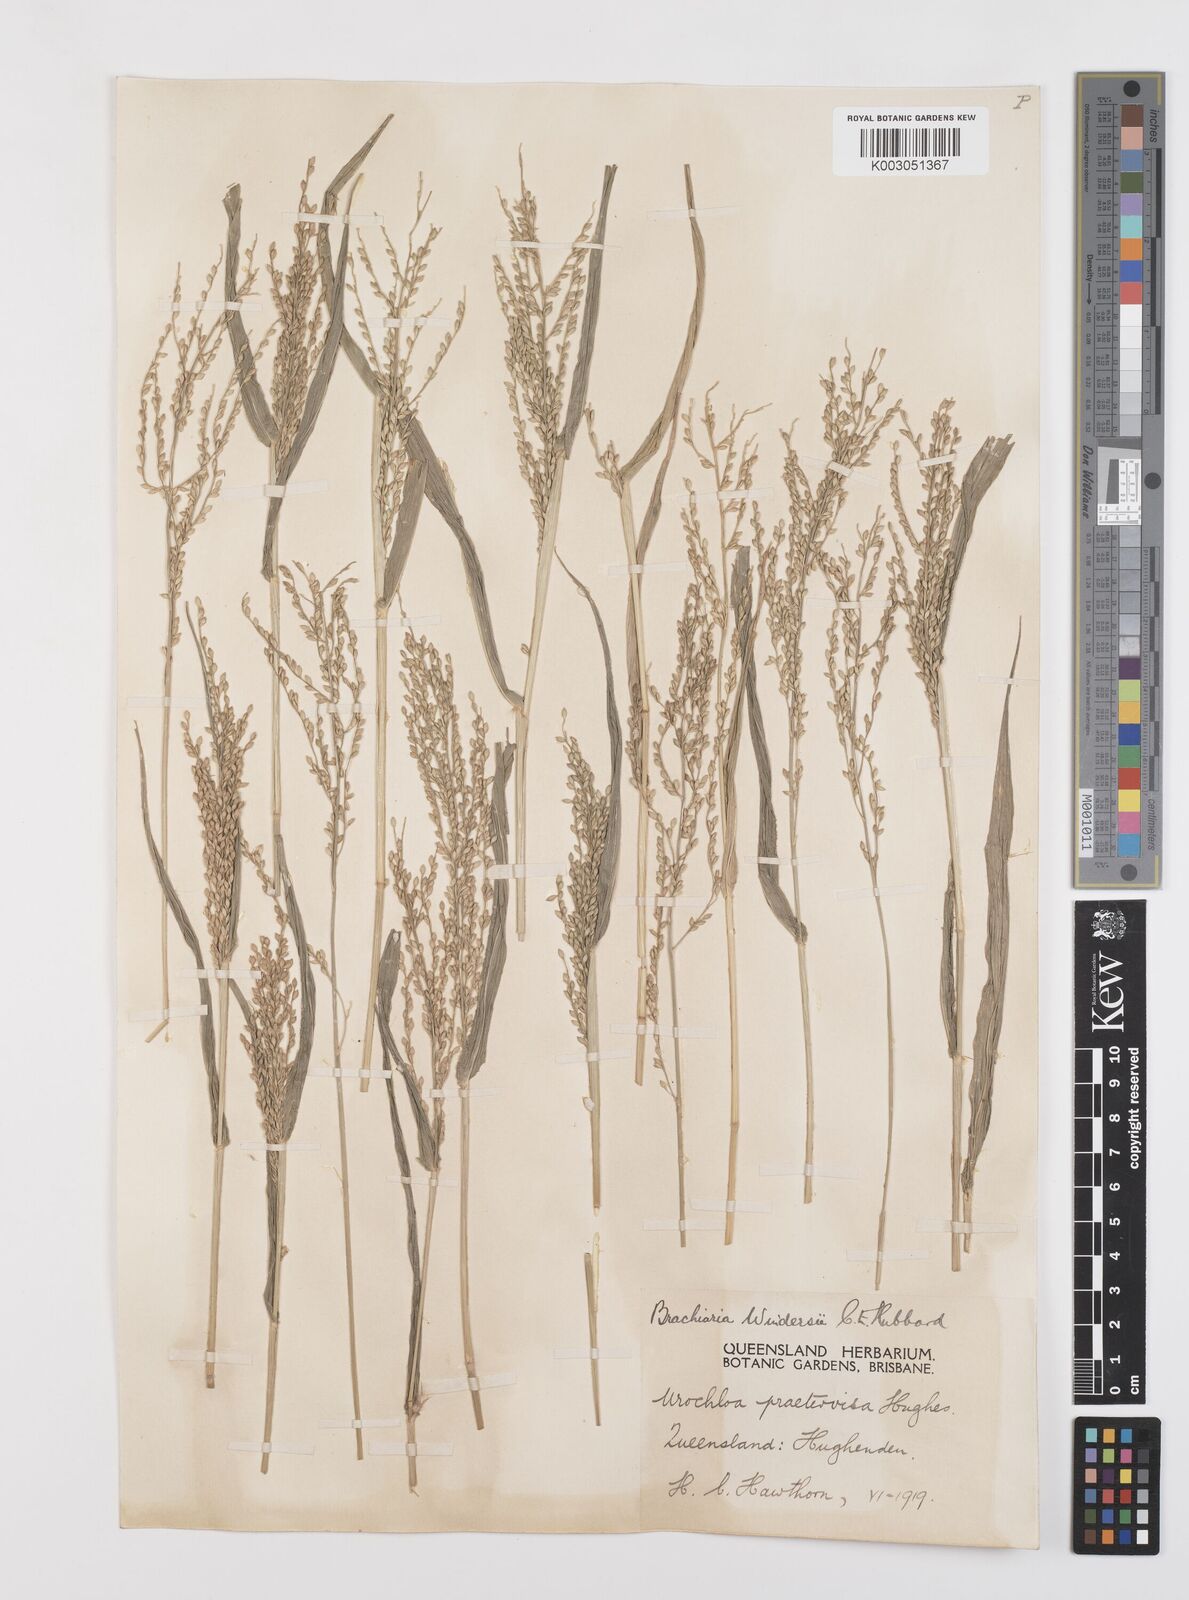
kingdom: Plantae
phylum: Tracheophyta
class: Liliopsida
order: Poales
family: Poaceae
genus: Urochloa
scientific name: Urochloa whiteana
